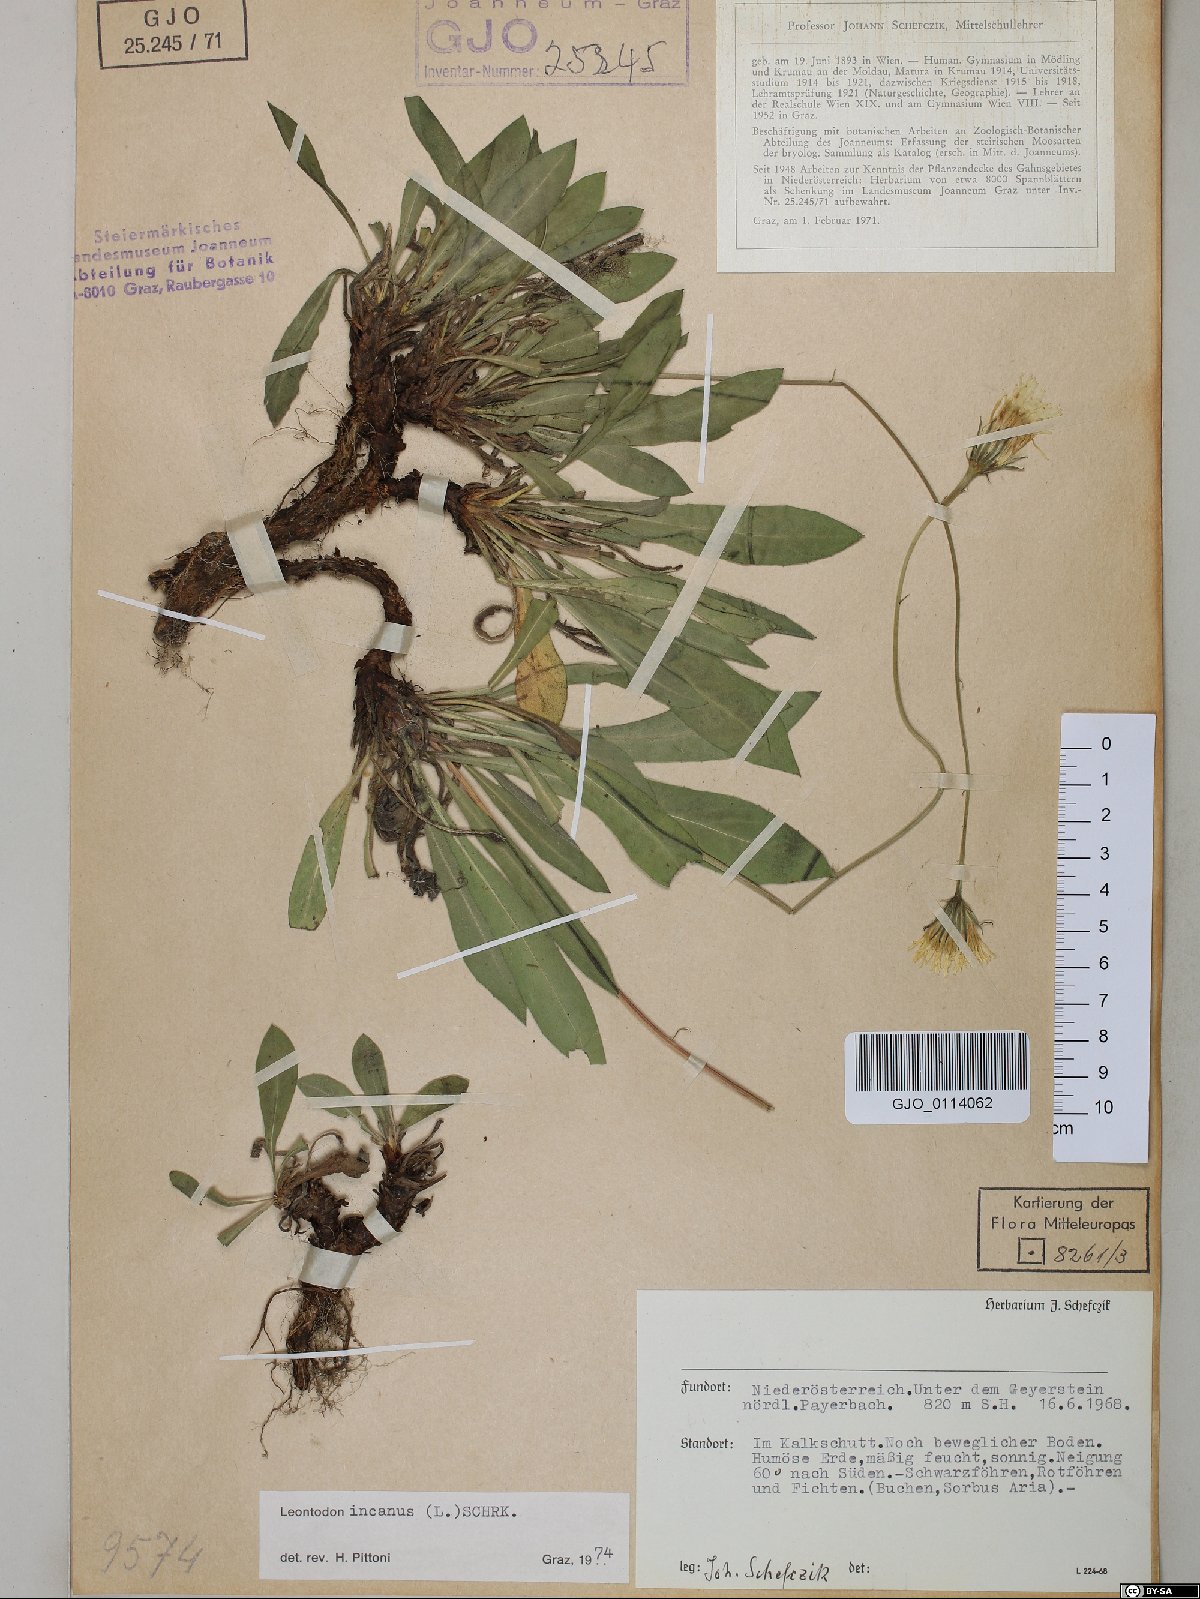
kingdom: Plantae
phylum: Tracheophyta
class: Magnoliopsida
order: Asterales
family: Asteraceae
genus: Leontodon
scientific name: Leontodon incanus
